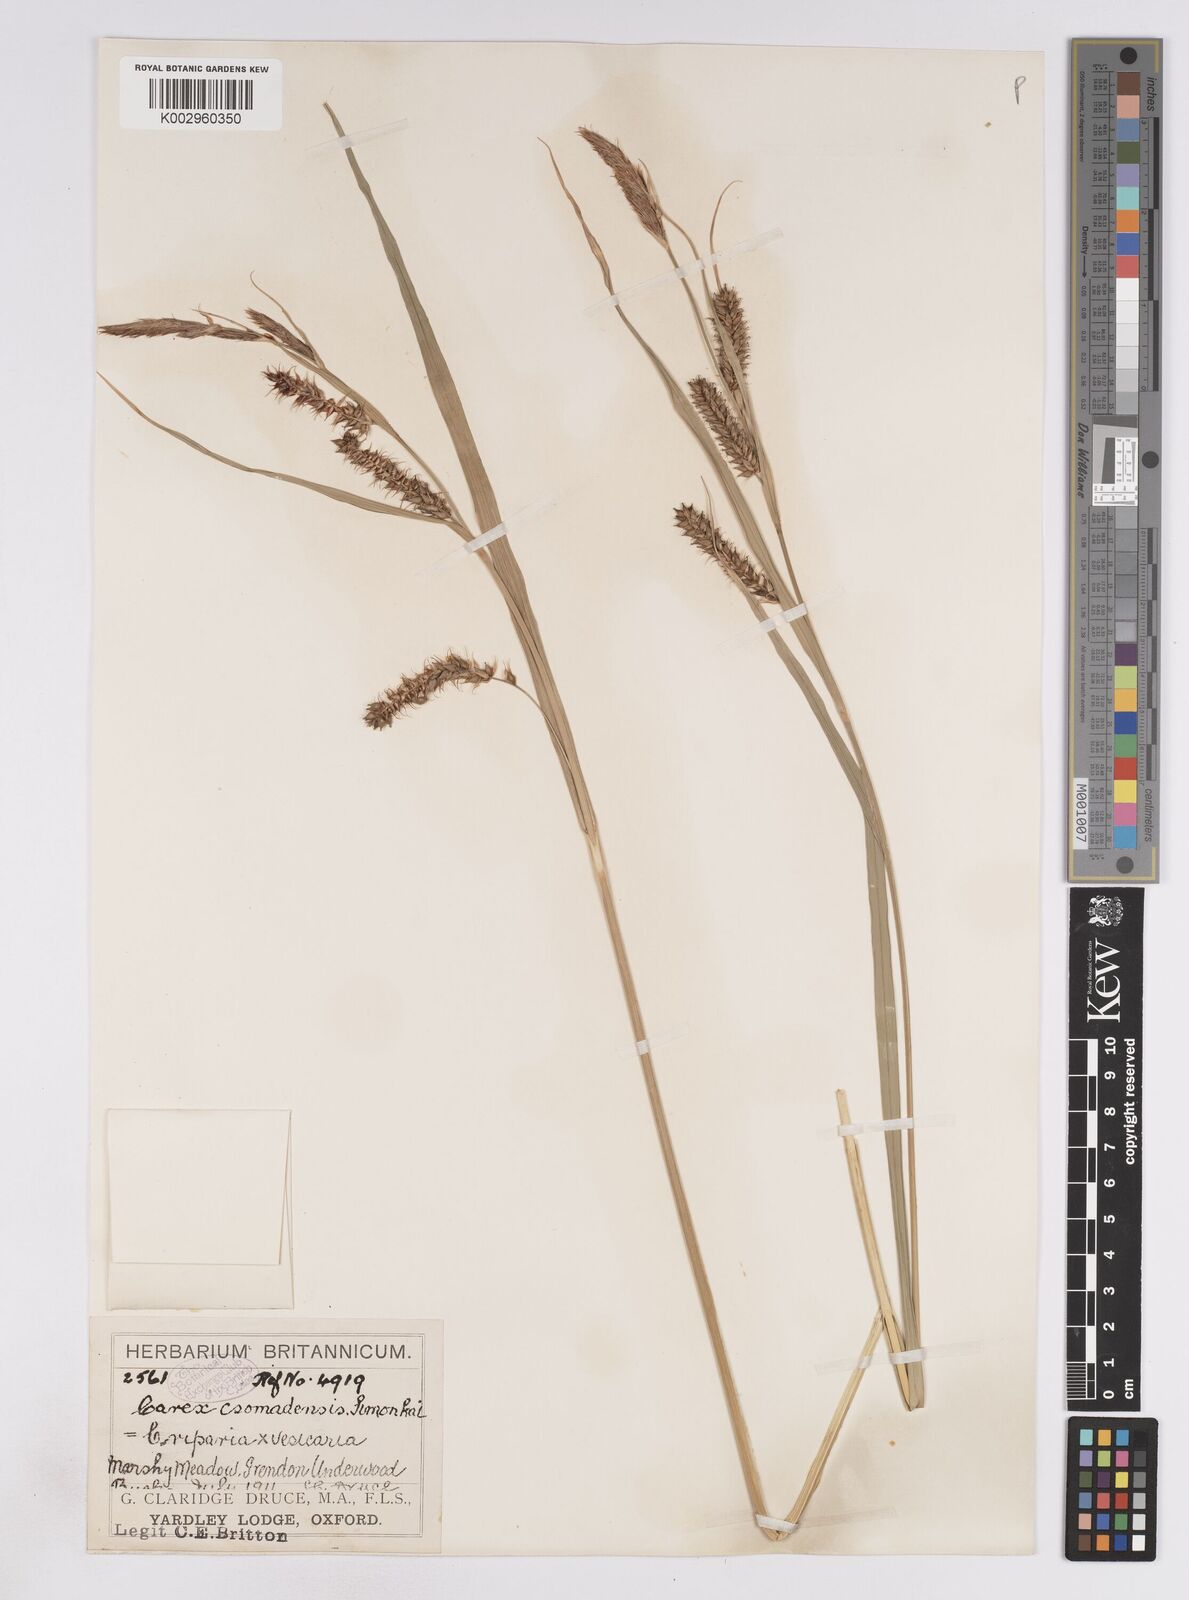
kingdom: Plantae
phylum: Tracheophyta
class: Liliopsida
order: Poales
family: Cyperaceae
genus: Carex
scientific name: Carex vesicaria
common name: Bladder-sedge
